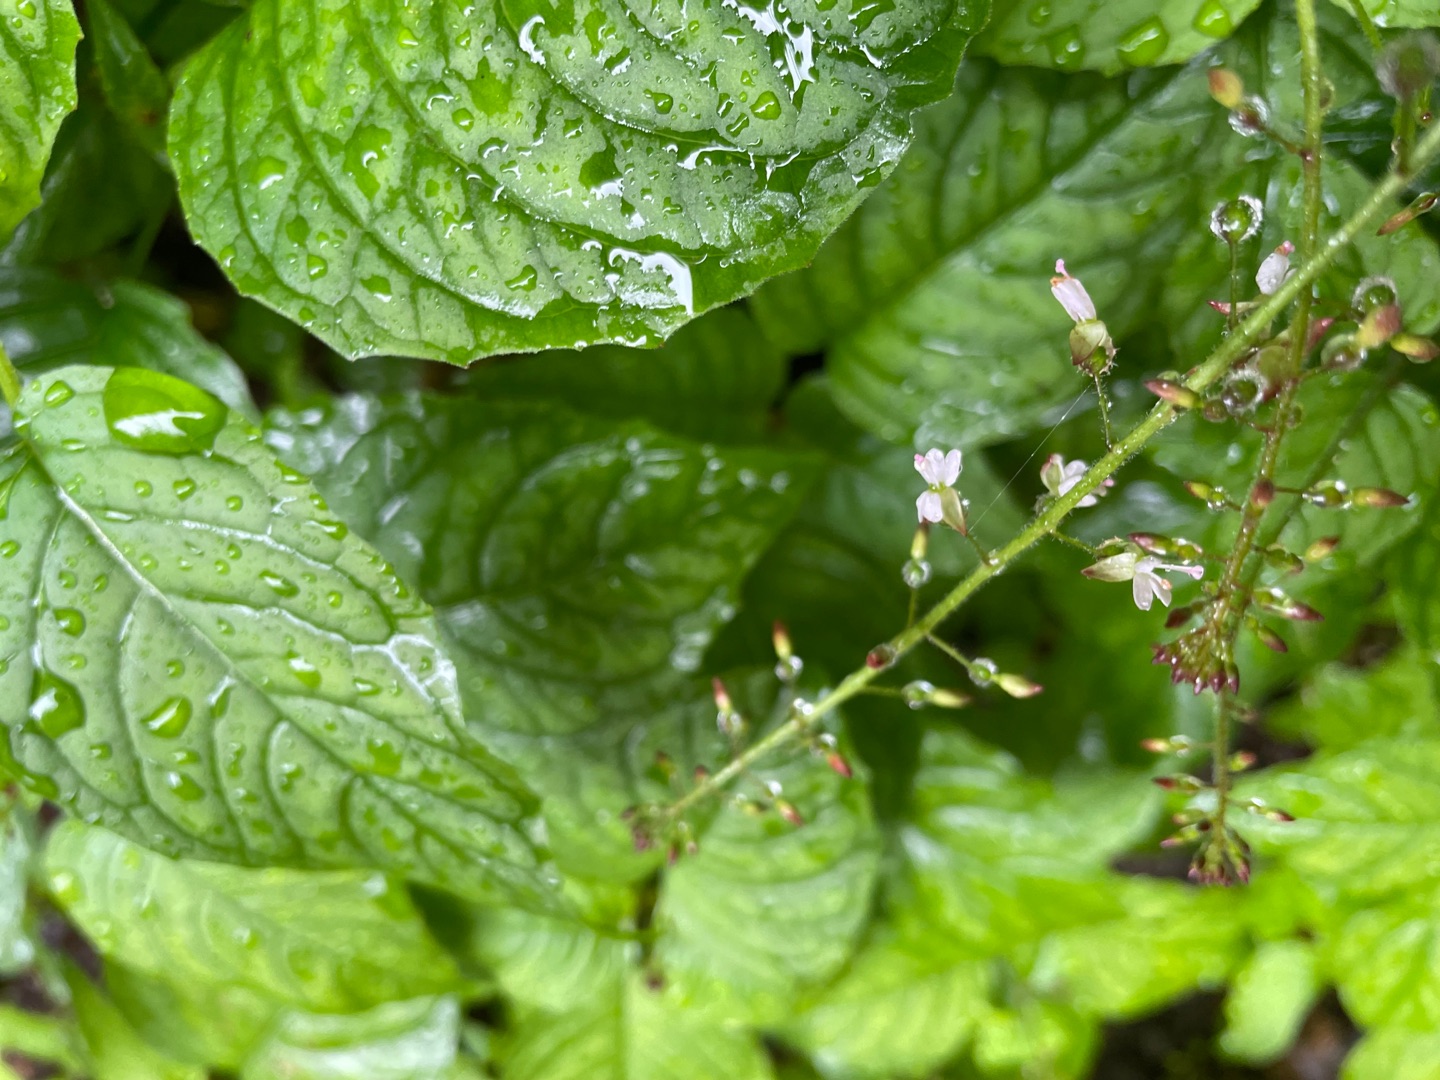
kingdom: Plantae
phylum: Tracheophyta
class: Magnoliopsida
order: Myrtales
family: Onagraceae
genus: Circaea
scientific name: Circaea lutetiana
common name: Dunet steffensurt
